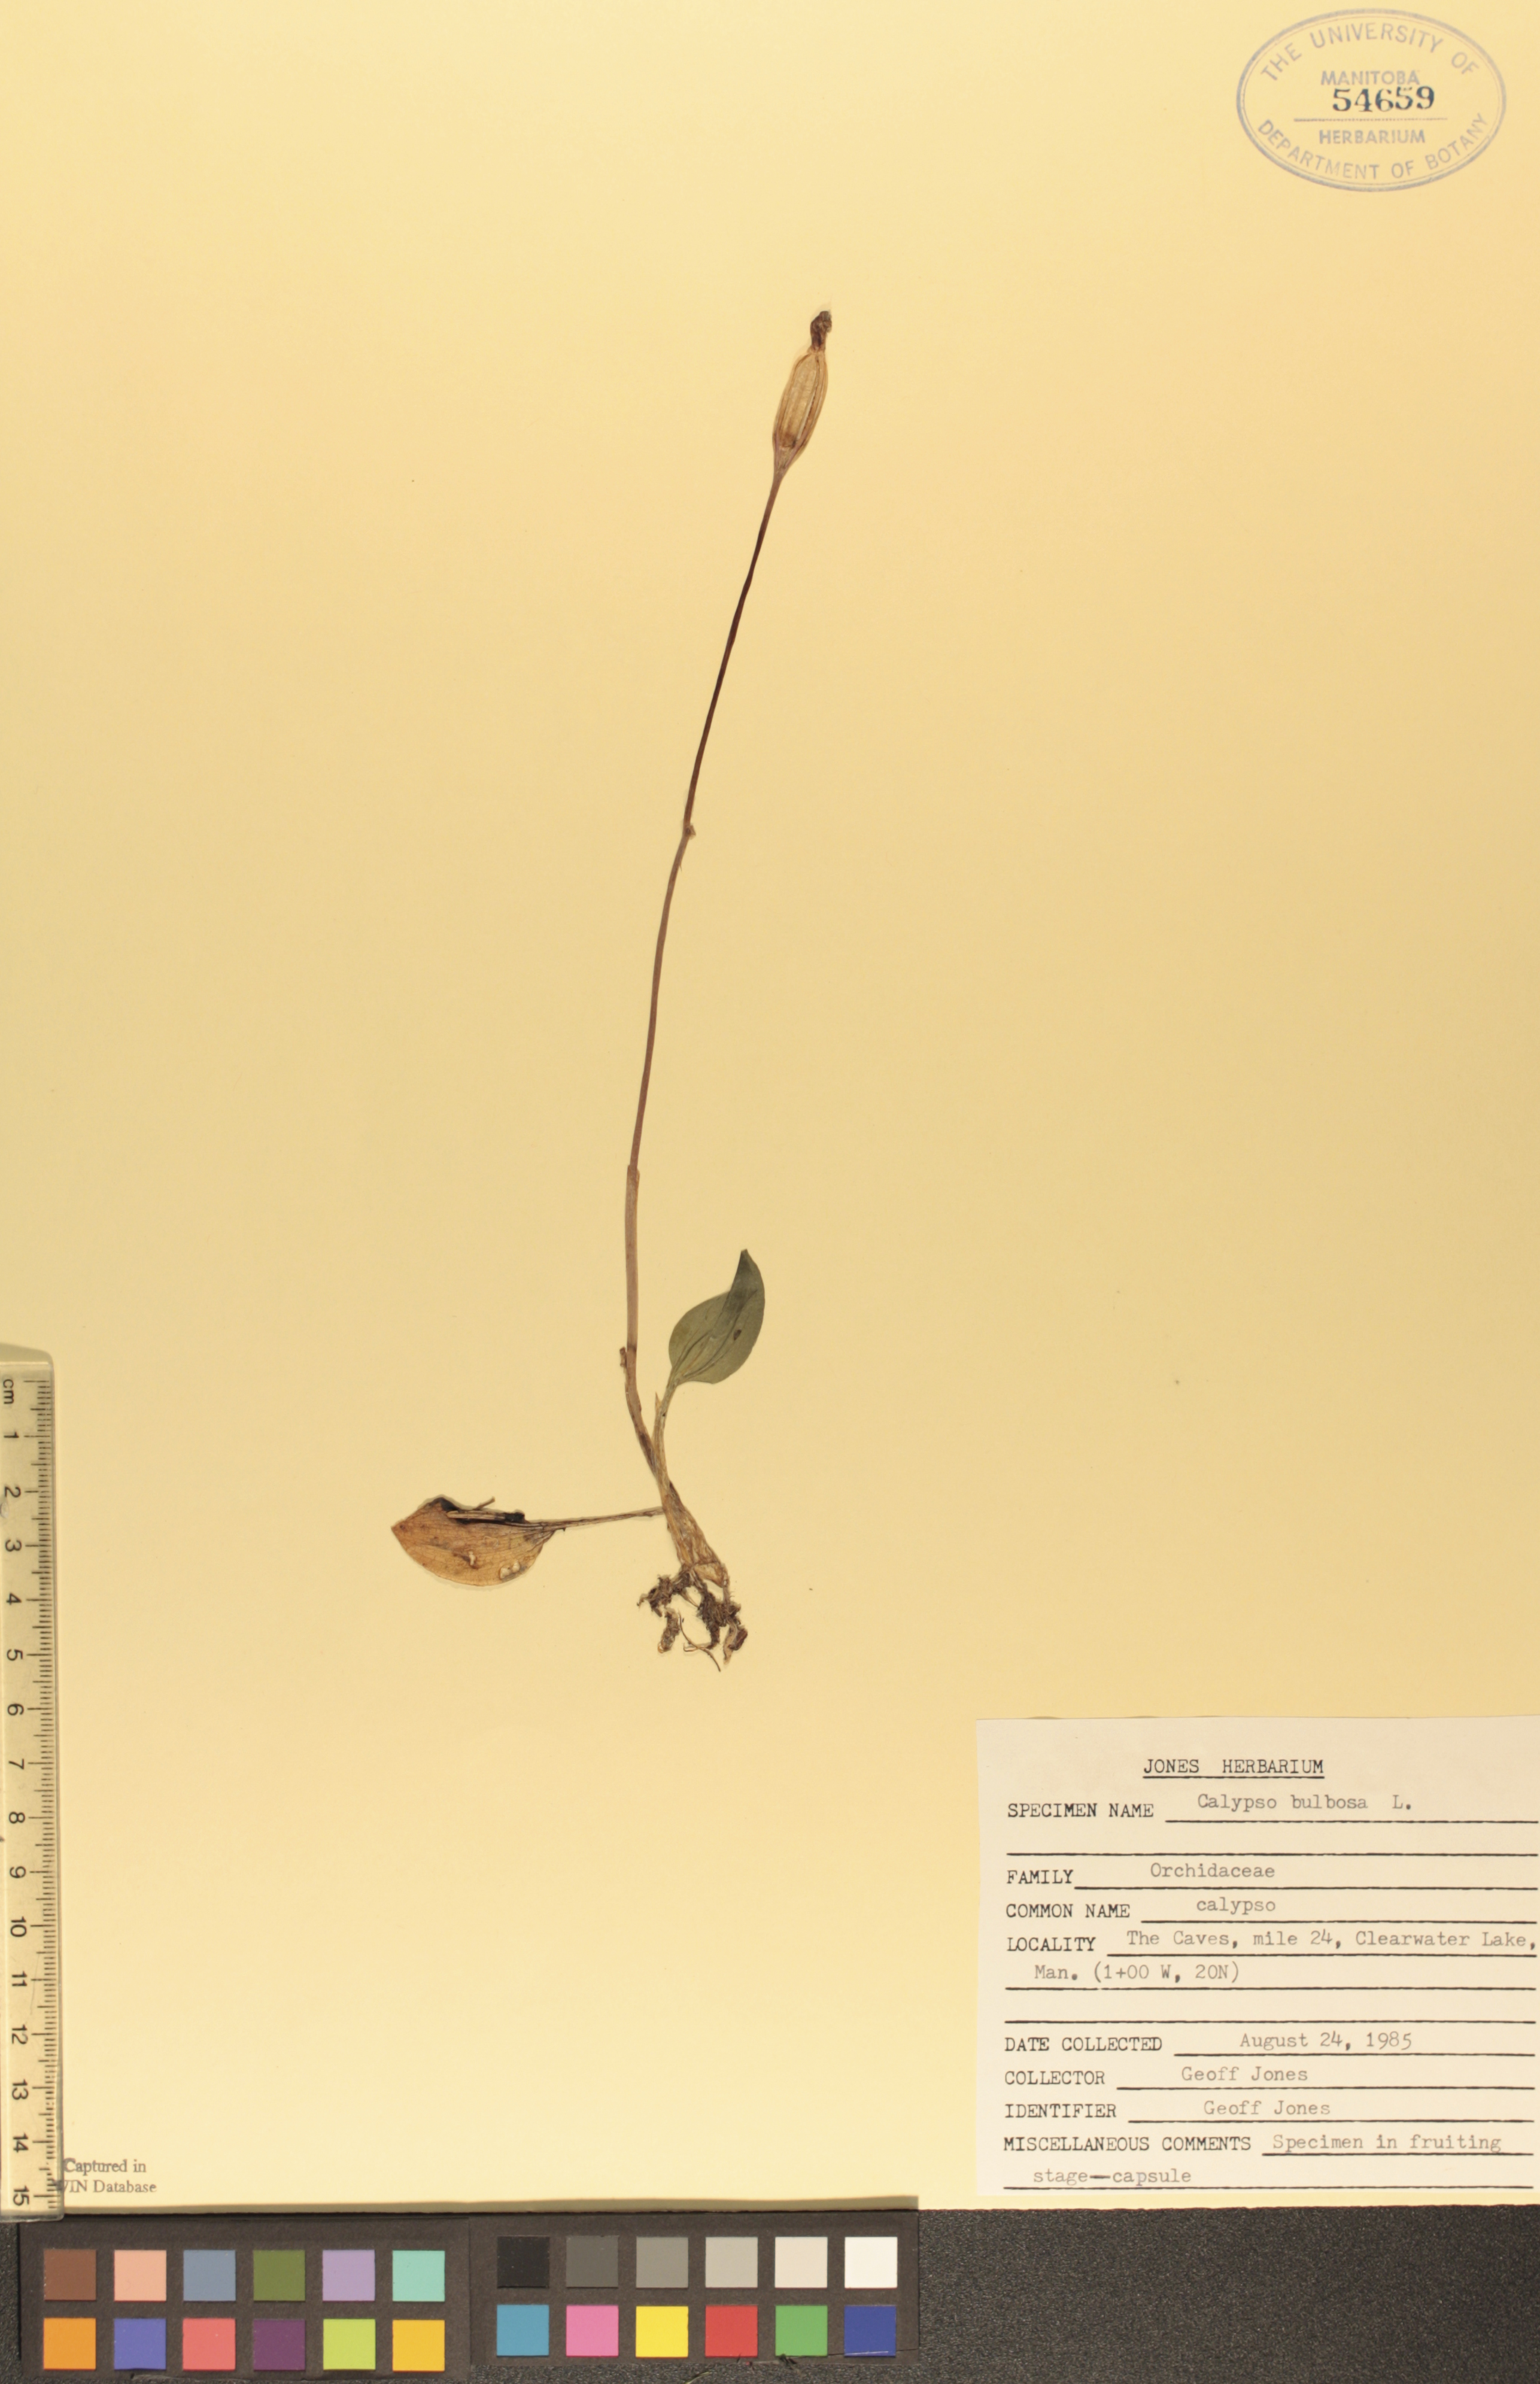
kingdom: Plantae
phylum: Tracheophyta
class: Liliopsida
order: Asparagales
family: Orchidaceae
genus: Calypso
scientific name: Calypso bulbosa
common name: Calypso
